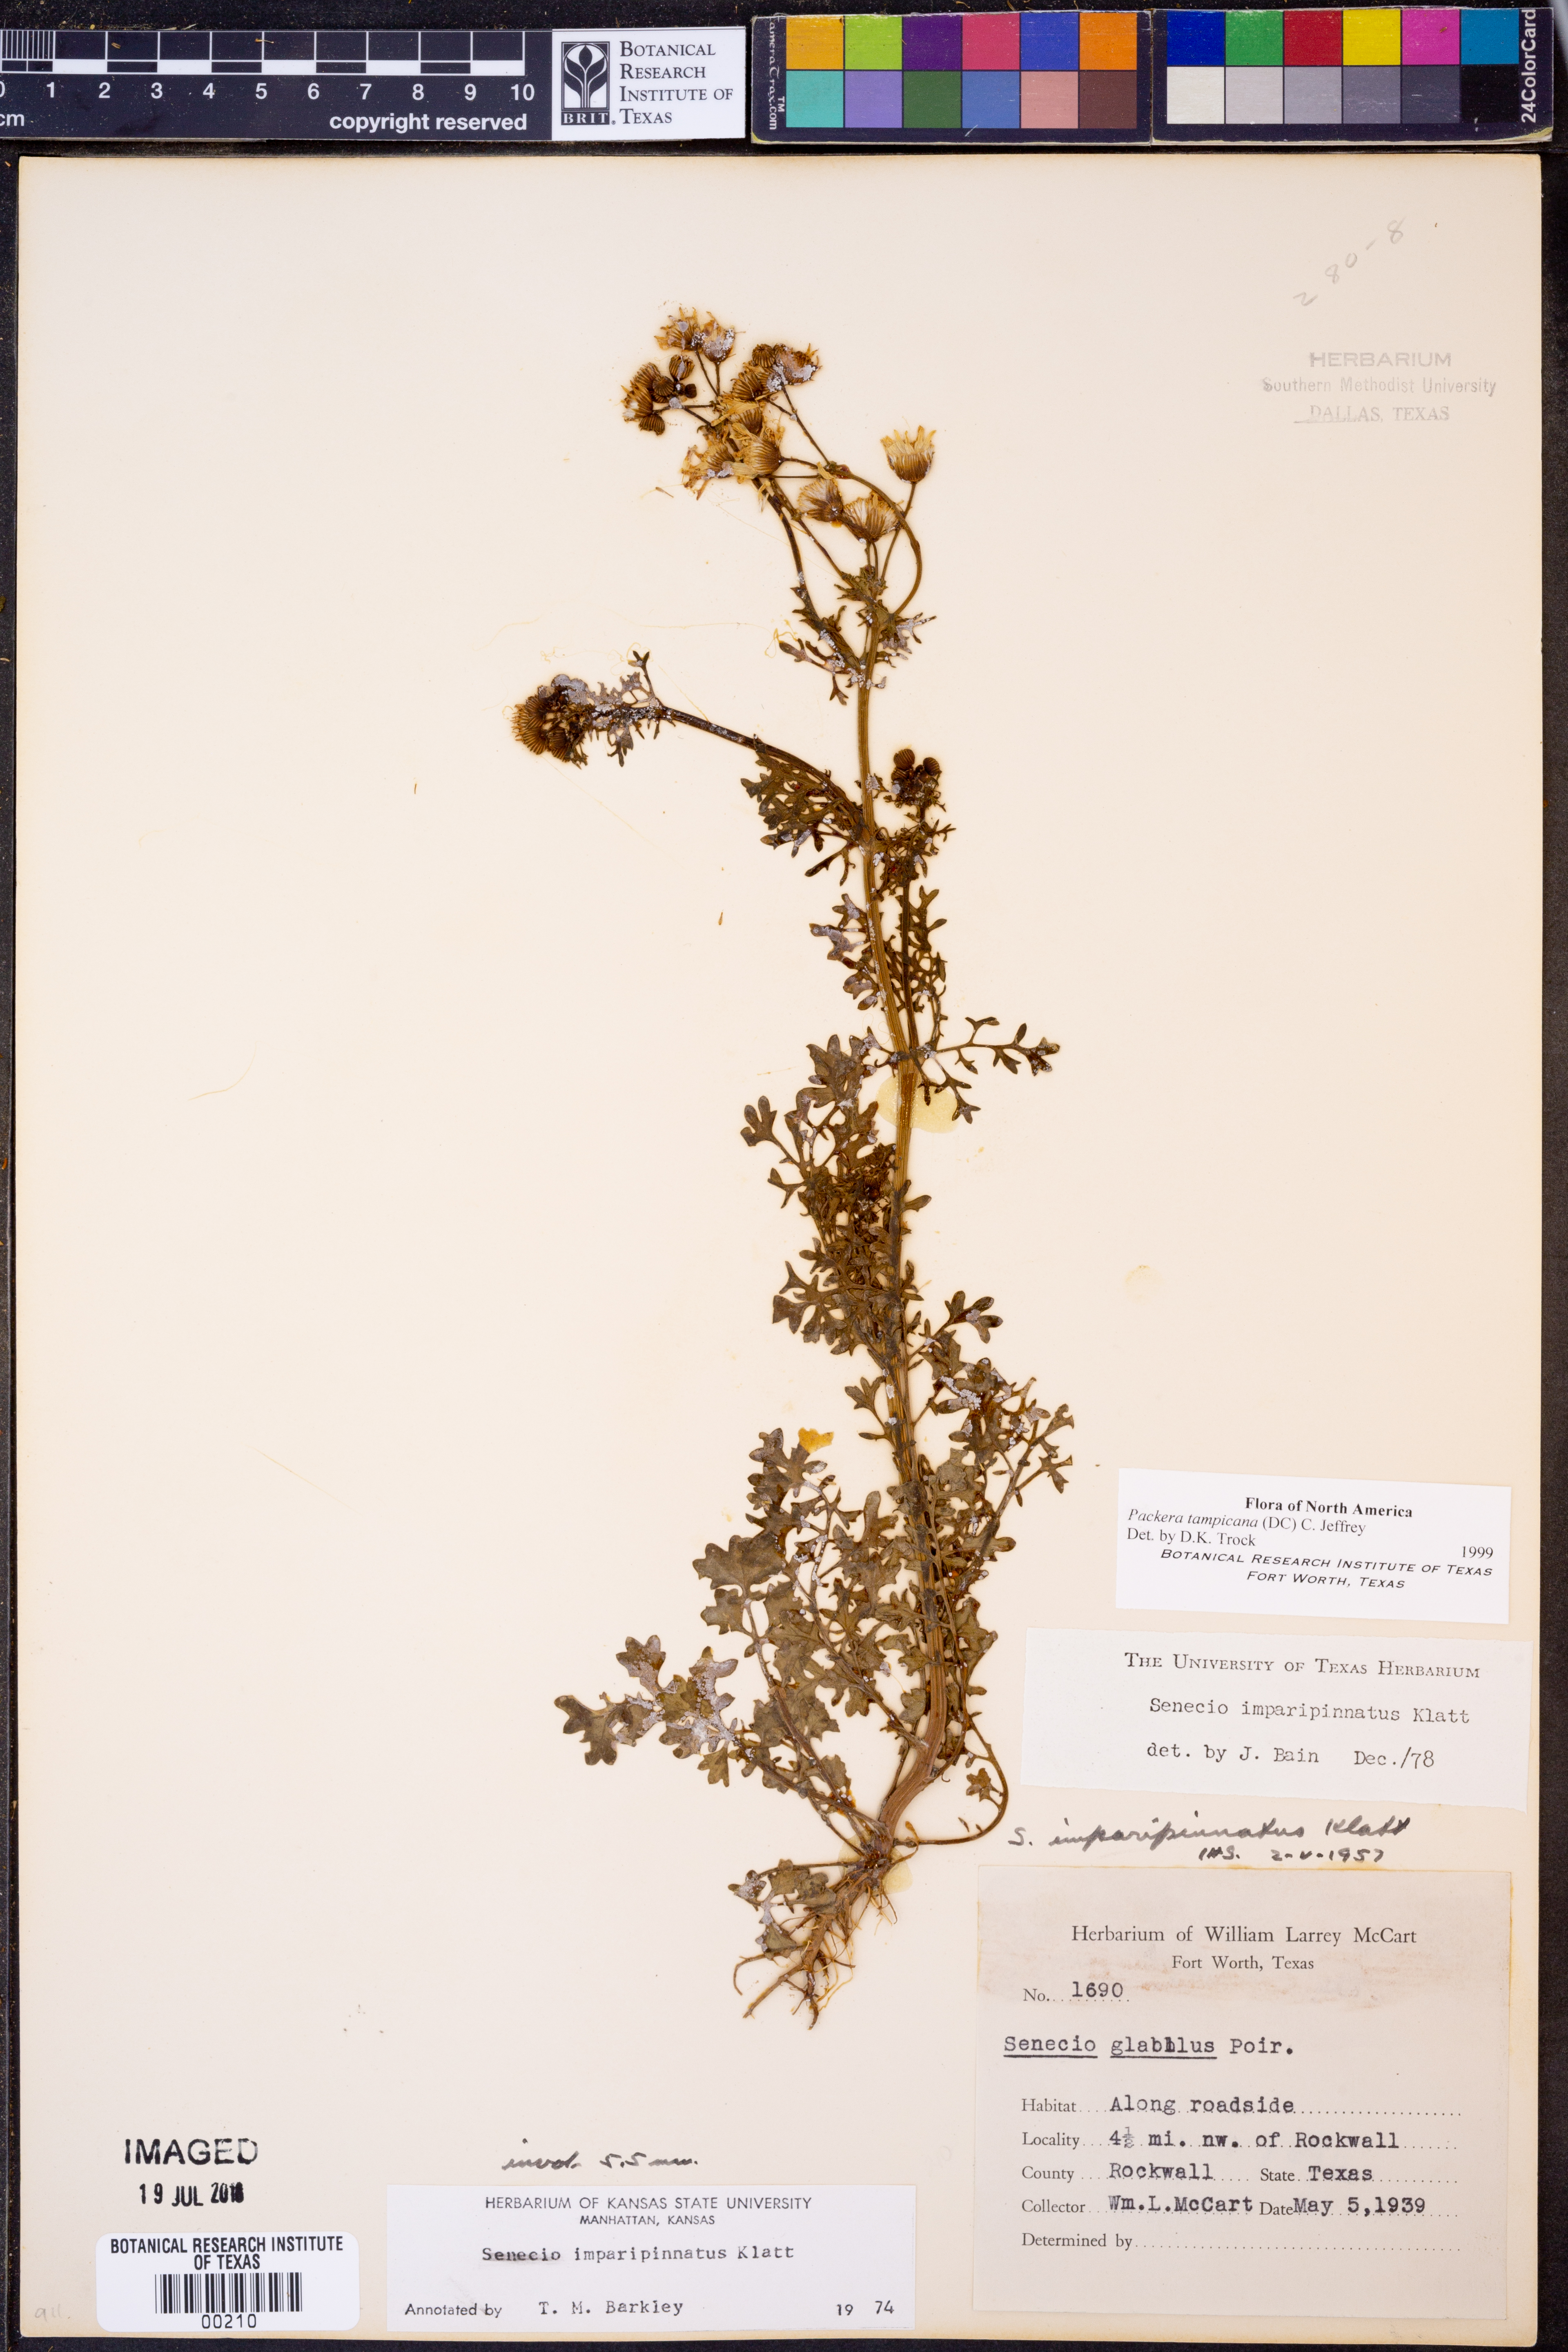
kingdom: Plantae
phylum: Tracheophyta
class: Magnoliopsida
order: Asterales
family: Asteraceae
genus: Packera
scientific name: Packera tampicana
